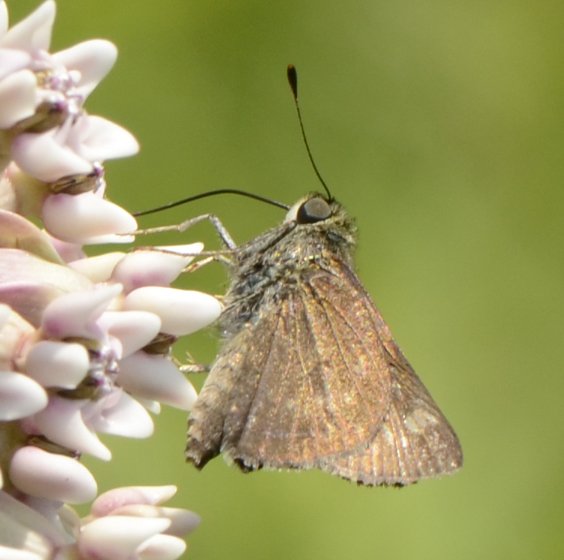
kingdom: Animalia
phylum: Arthropoda
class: Insecta
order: Lepidoptera
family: Hesperiidae
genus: Vernia
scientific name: Vernia verna
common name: Little Glassywing
